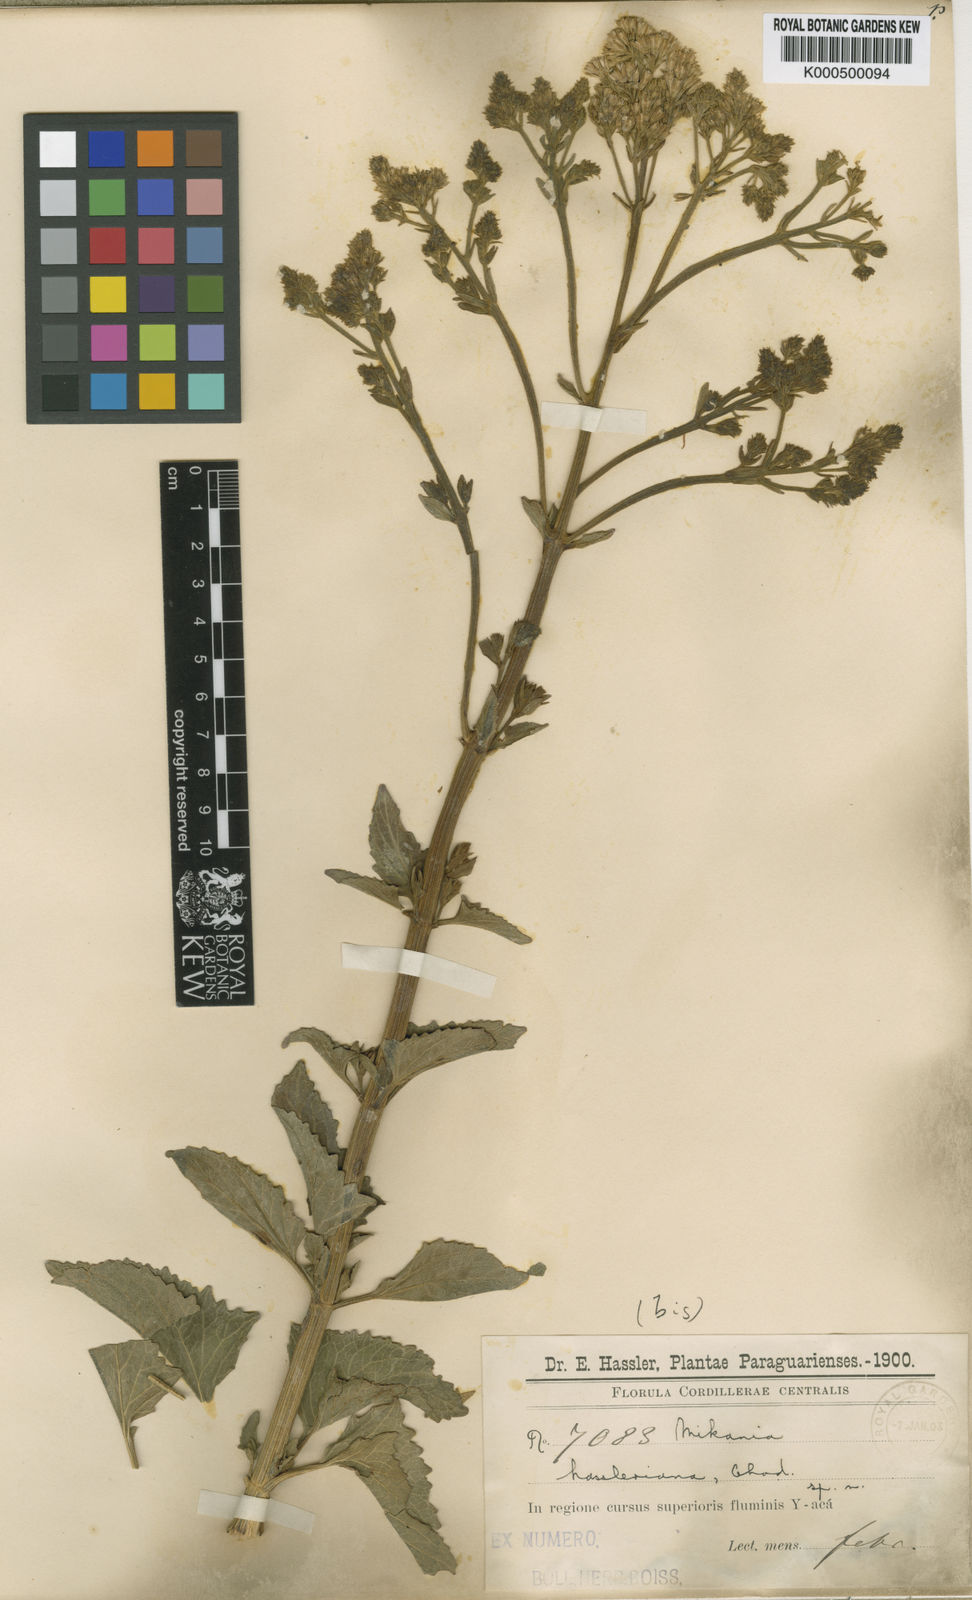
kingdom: Plantae
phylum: Tracheophyta
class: Magnoliopsida
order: Asterales
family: Asteraceae
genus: Mikania
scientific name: Mikania fulva
